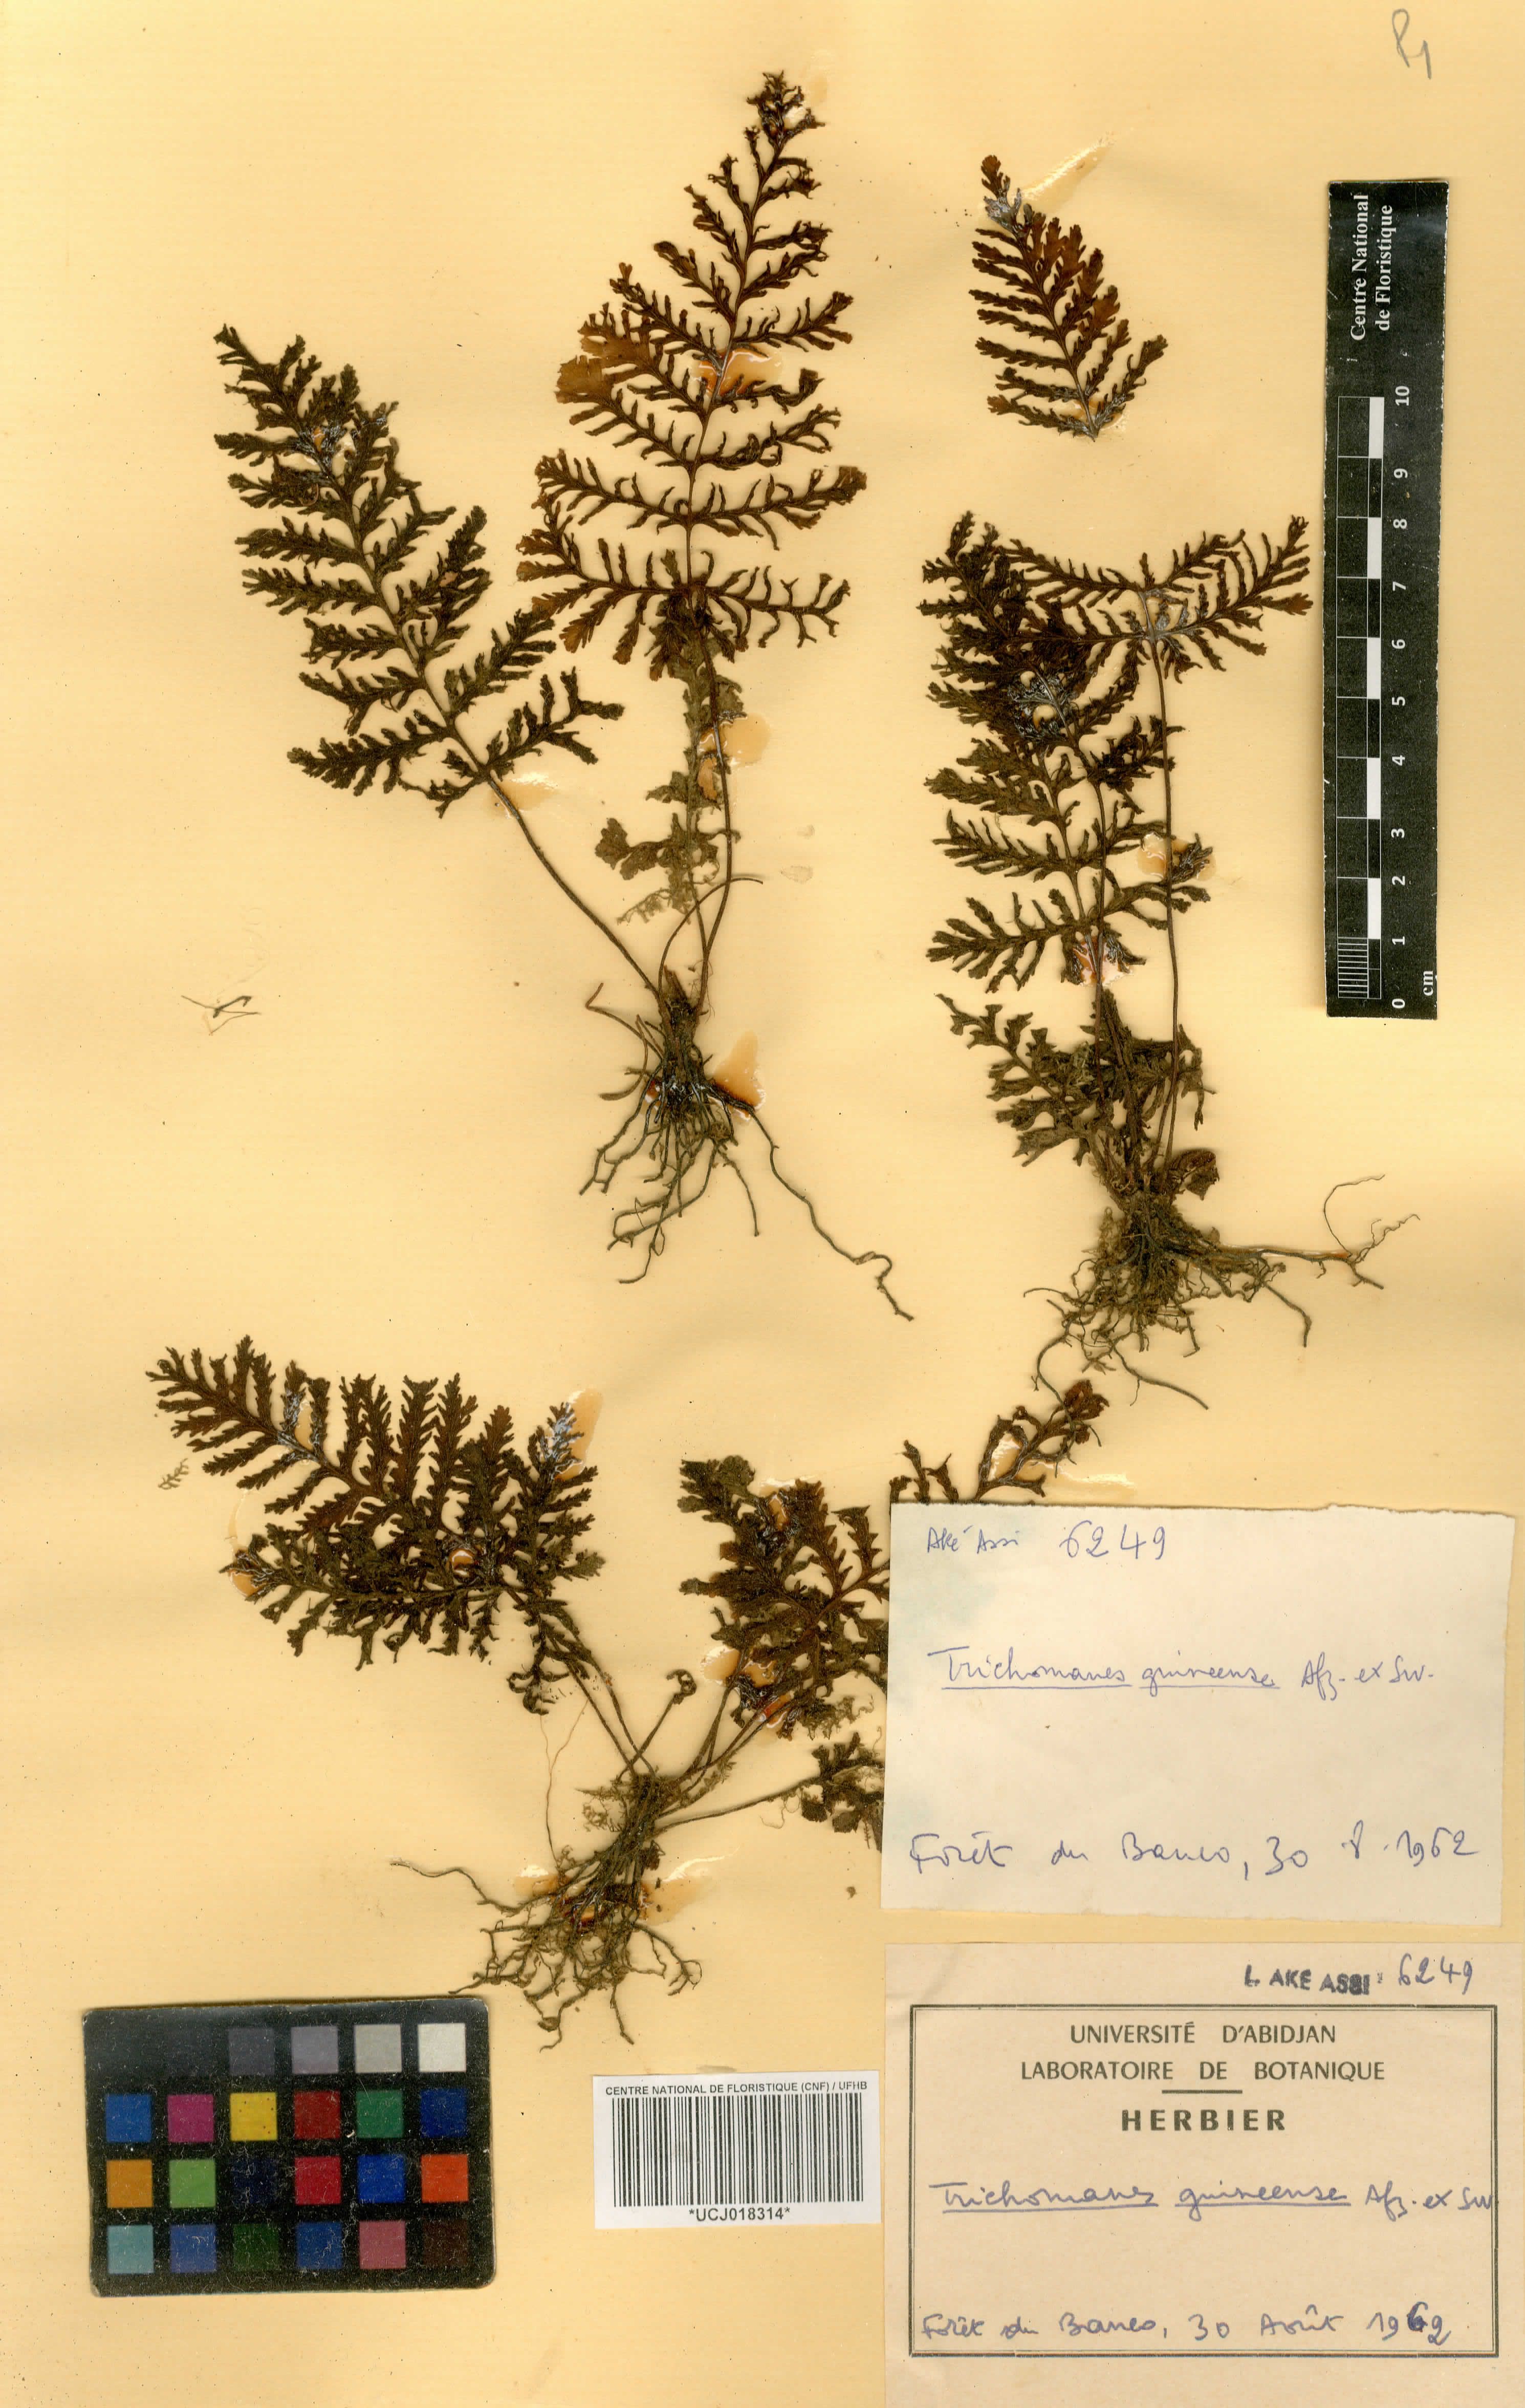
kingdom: Plantae
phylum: Tracheophyta
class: Polypodiopsida
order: Hymenophyllales
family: Hymenophyllaceae
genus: Abrodictyum
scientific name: Abrodictyum guineense
